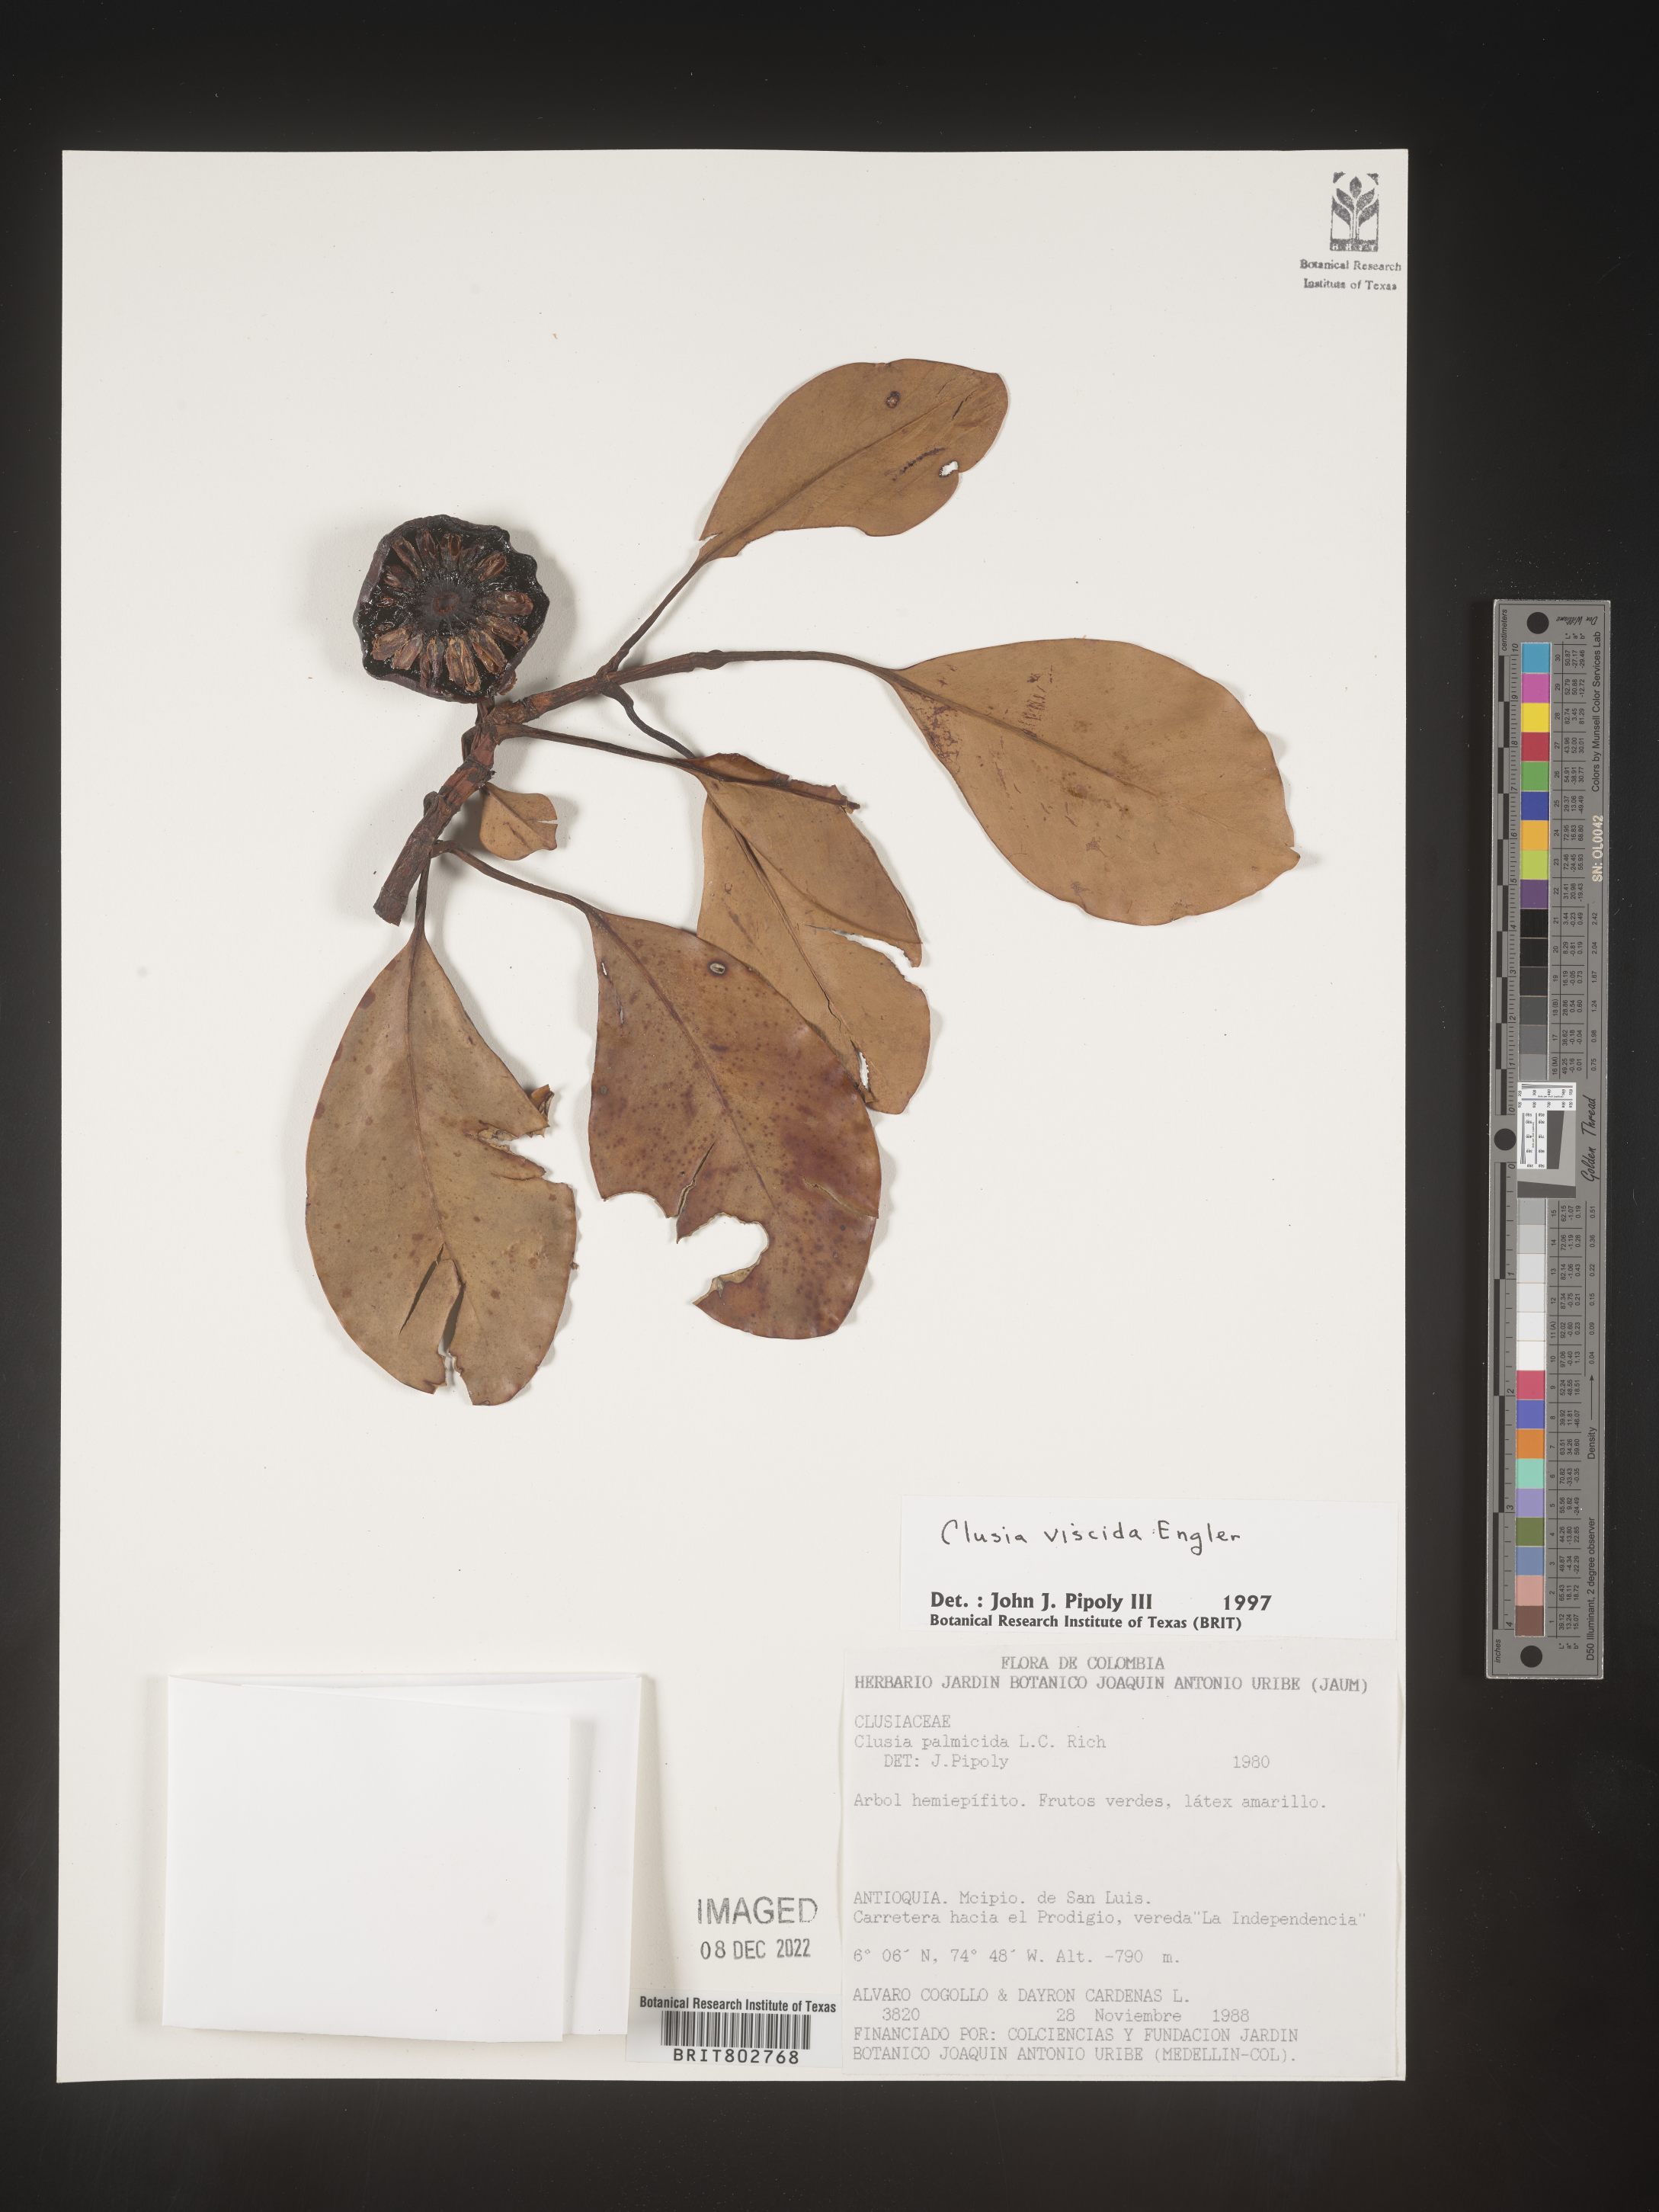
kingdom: Plantae
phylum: Tracheophyta
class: Magnoliopsida
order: Malpighiales
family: Clusiaceae
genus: Clusia
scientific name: Clusia viscida
